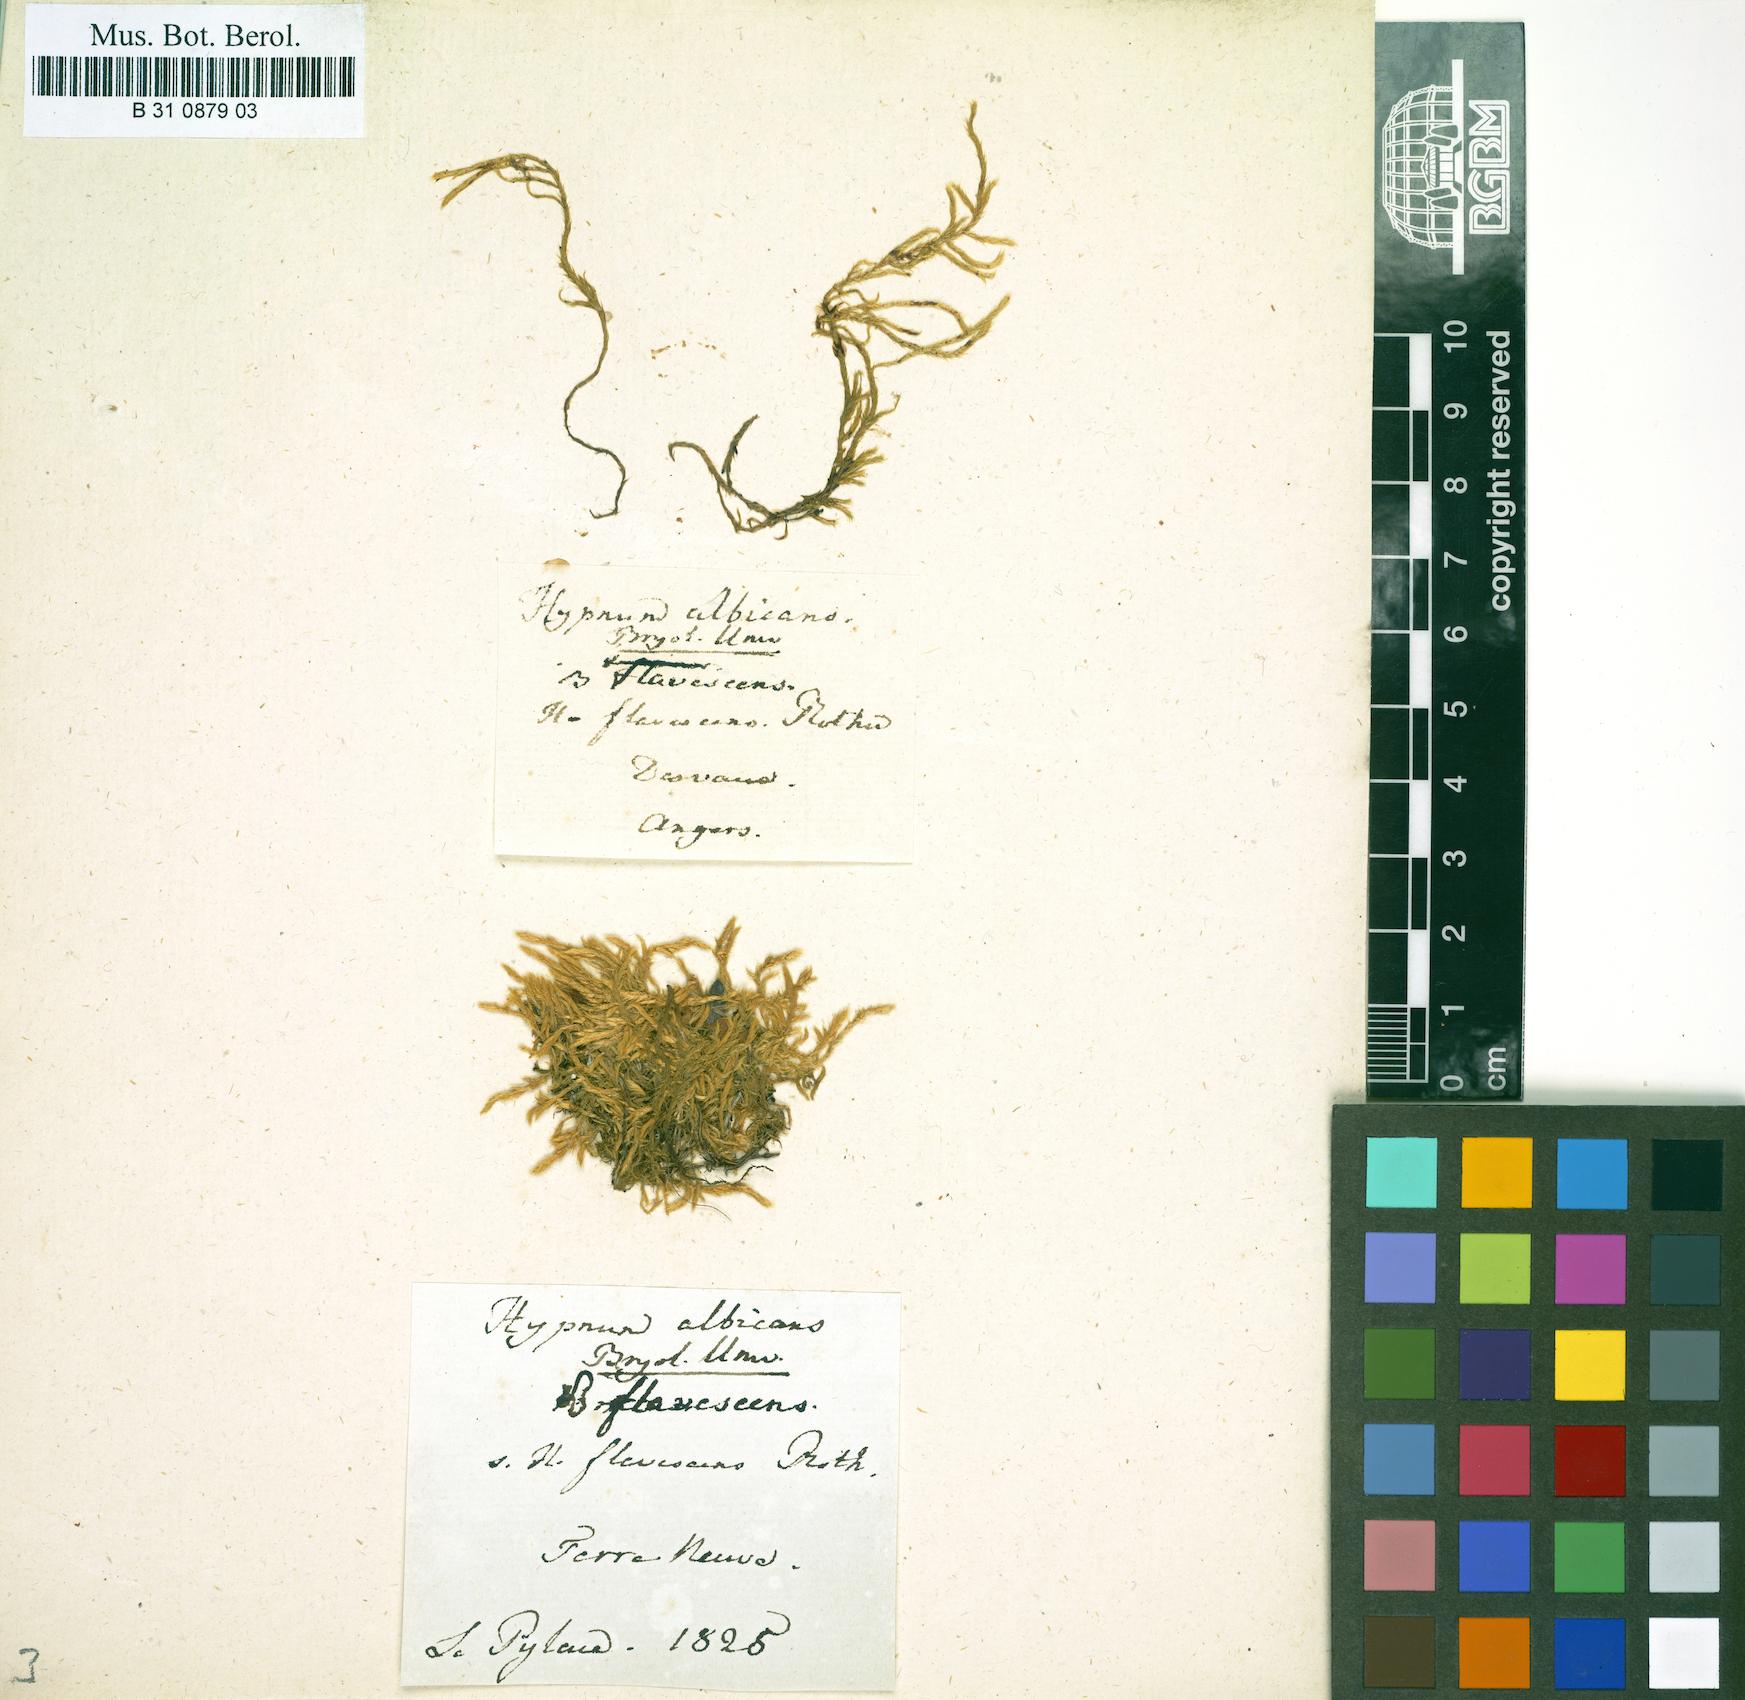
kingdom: Plantae
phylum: Bryophyta
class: Bryopsida
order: Hypnales
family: Brachytheciaceae
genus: Brachythecium
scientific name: Brachythecium albicans
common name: Whitish ragged moss
